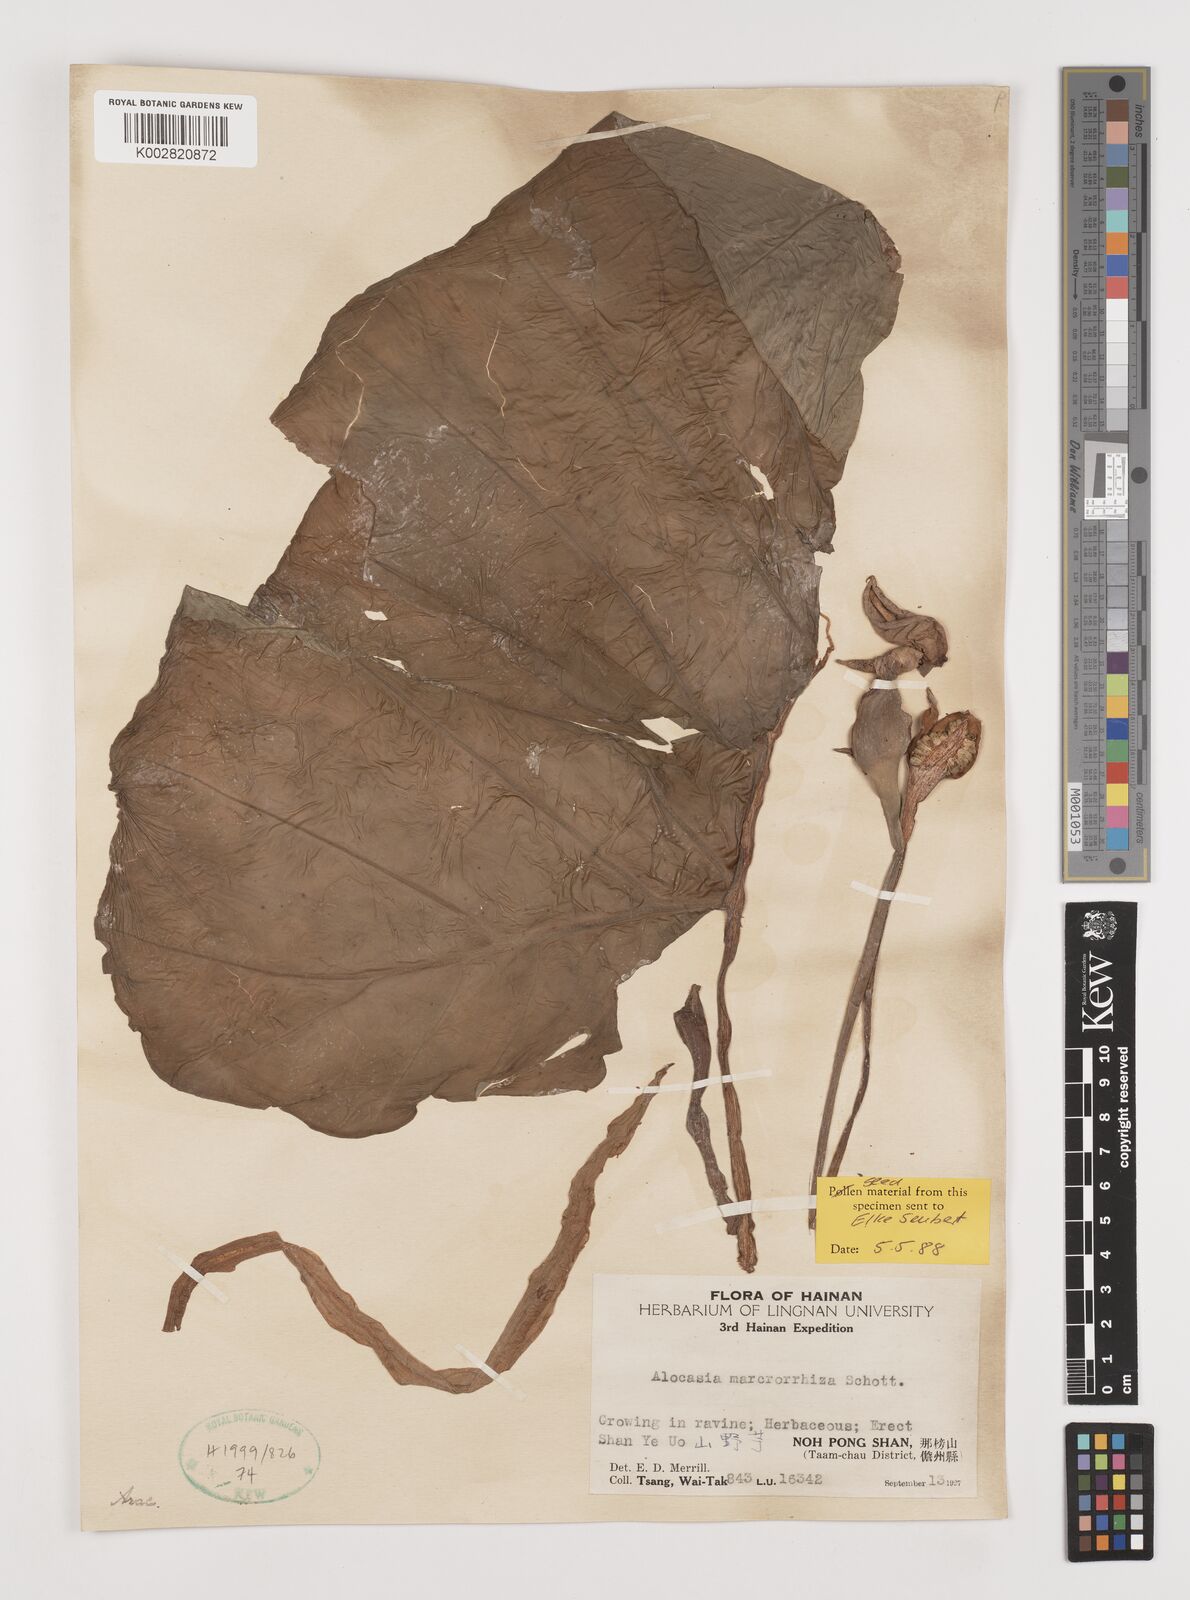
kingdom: Plantae
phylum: Tracheophyta
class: Liliopsida
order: Alismatales
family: Araceae
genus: Alocasia
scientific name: Alocasia macrorrhizos
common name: Giant taro
